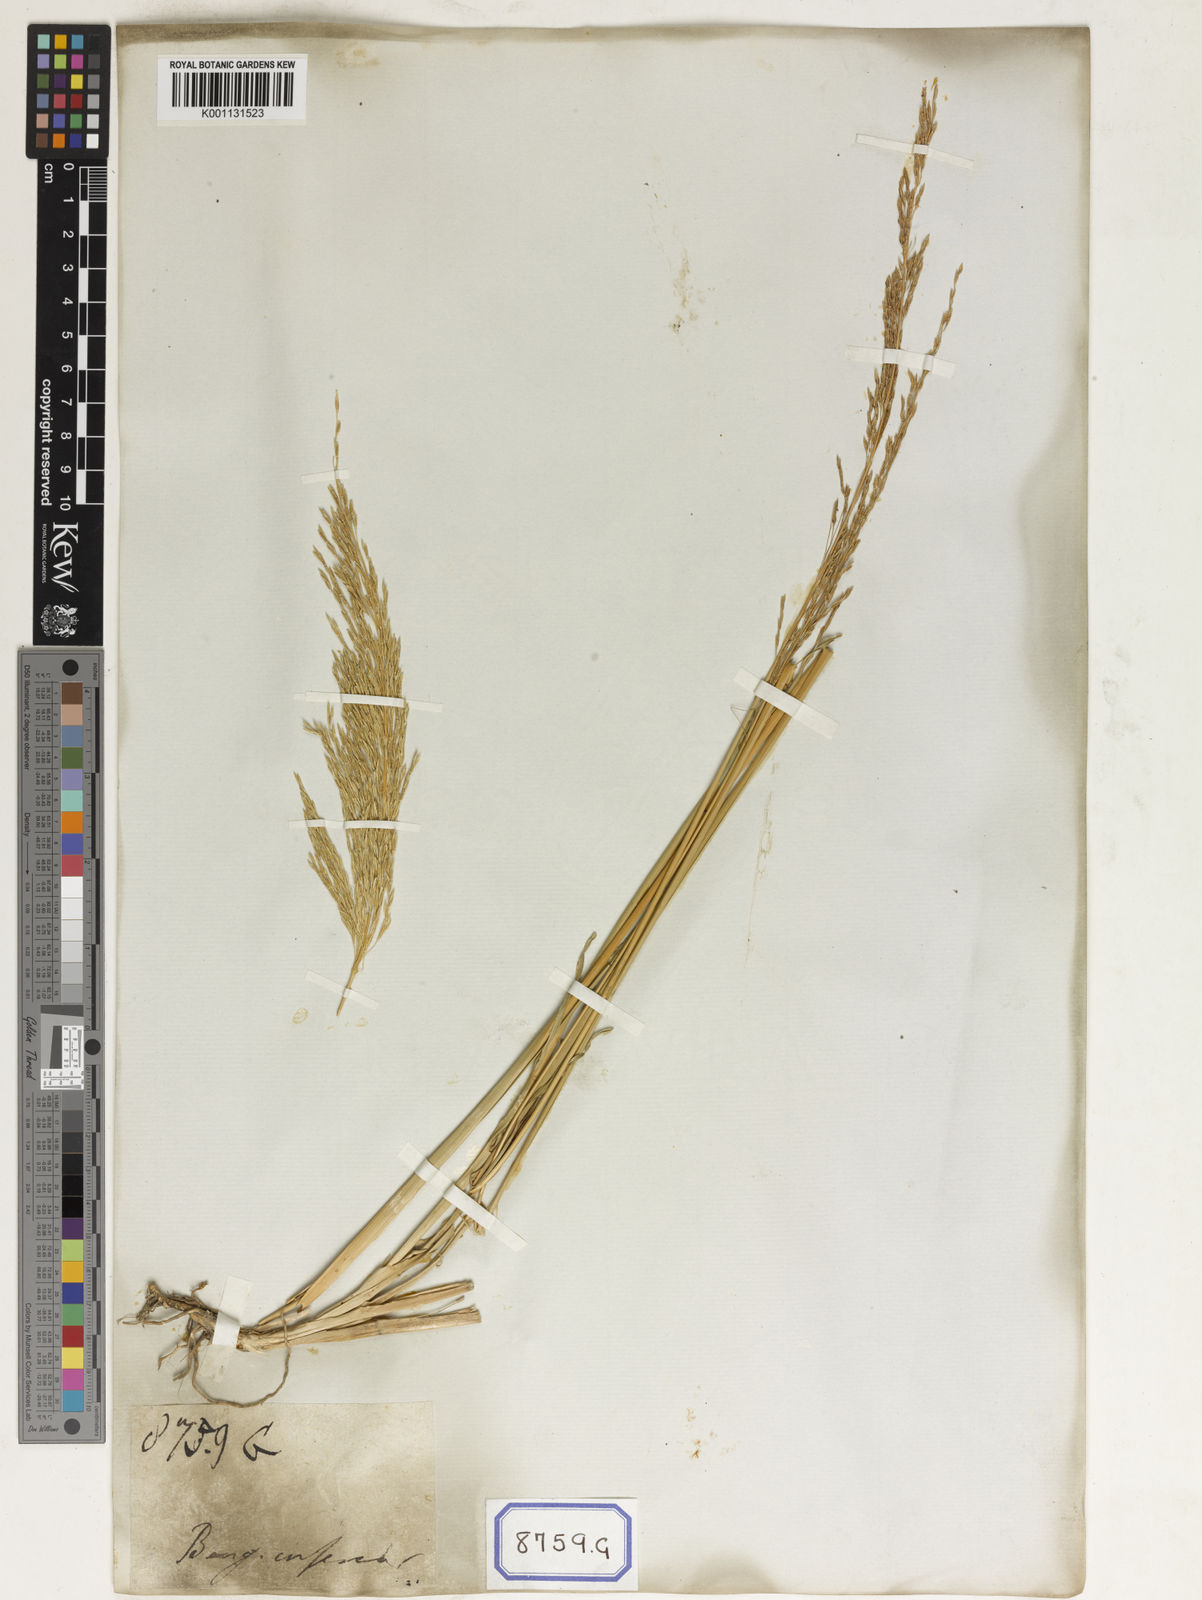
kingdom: Plantae
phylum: Tracheophyta
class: Liliopsida
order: Poales
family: Poaceae
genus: Chrysopogon
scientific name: Chrysopogon zizanioides
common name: False beardgrass
